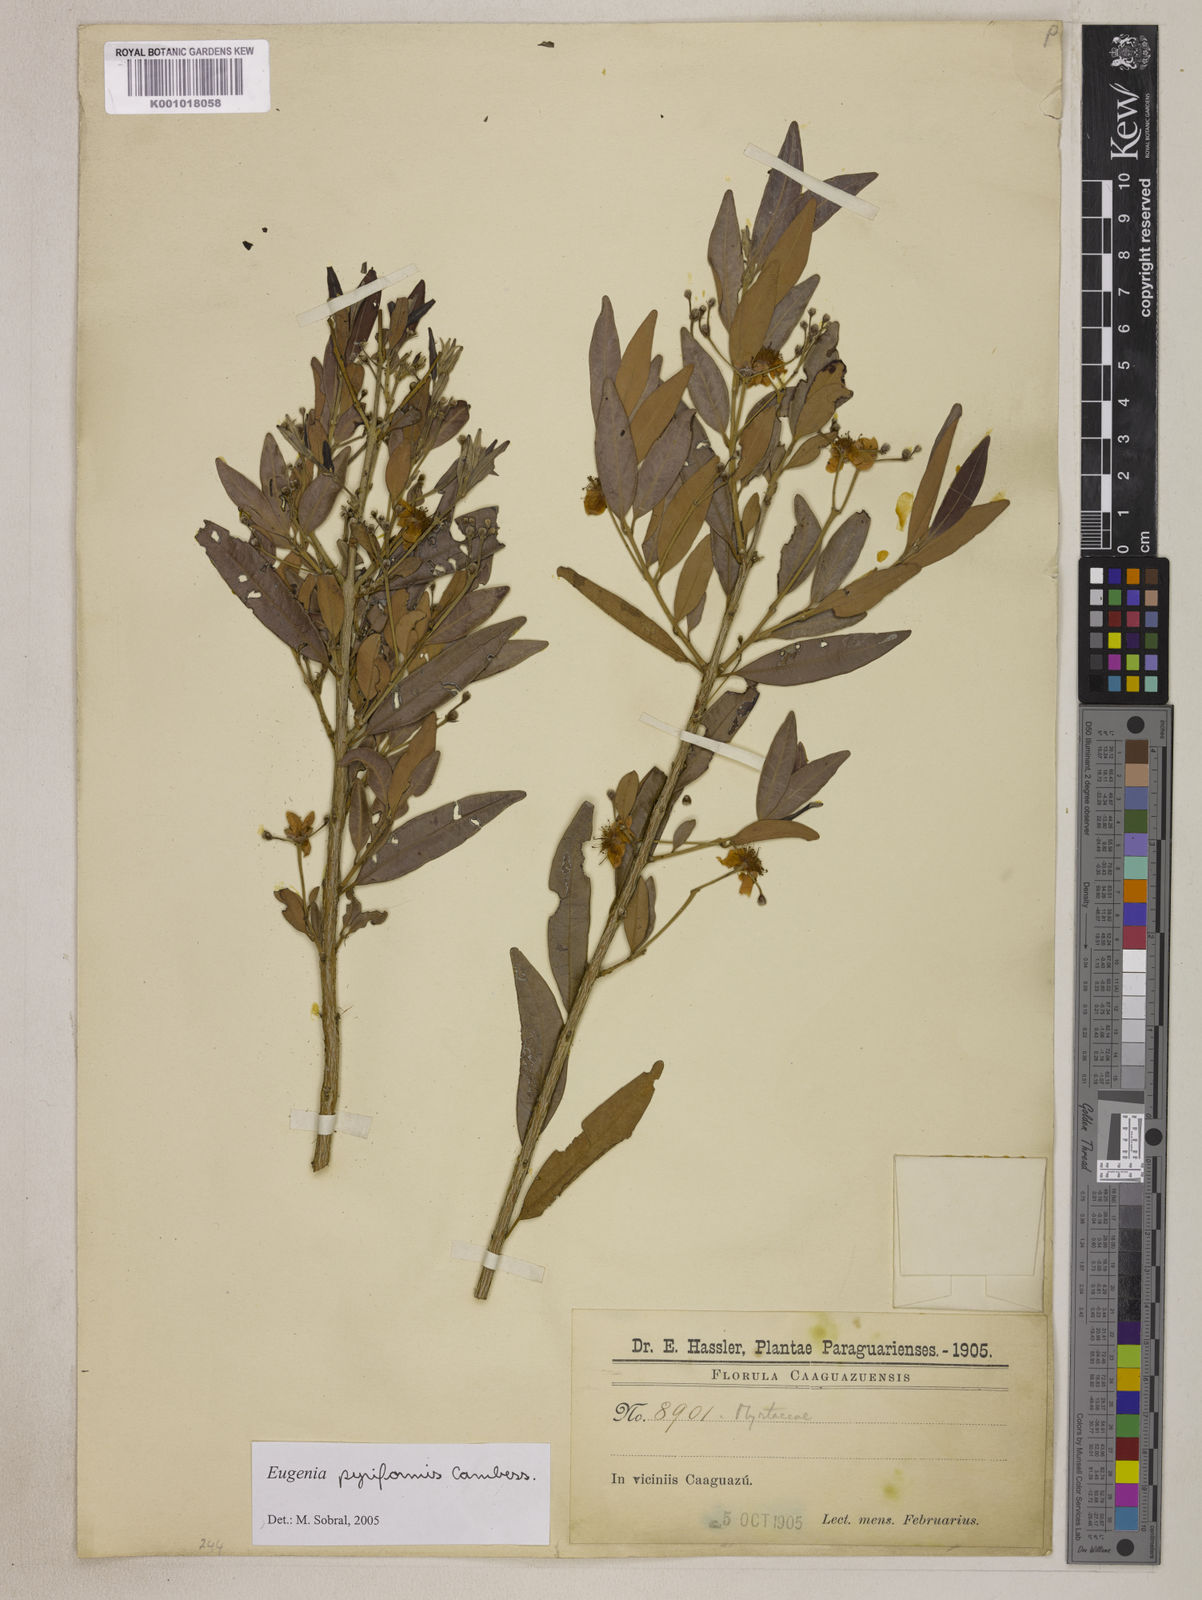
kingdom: Plantae
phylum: Tracheophyta
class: Magnoliopsida
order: Myrtales
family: Myrtaceae
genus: Eugenia
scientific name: Eugenia pyriformis
